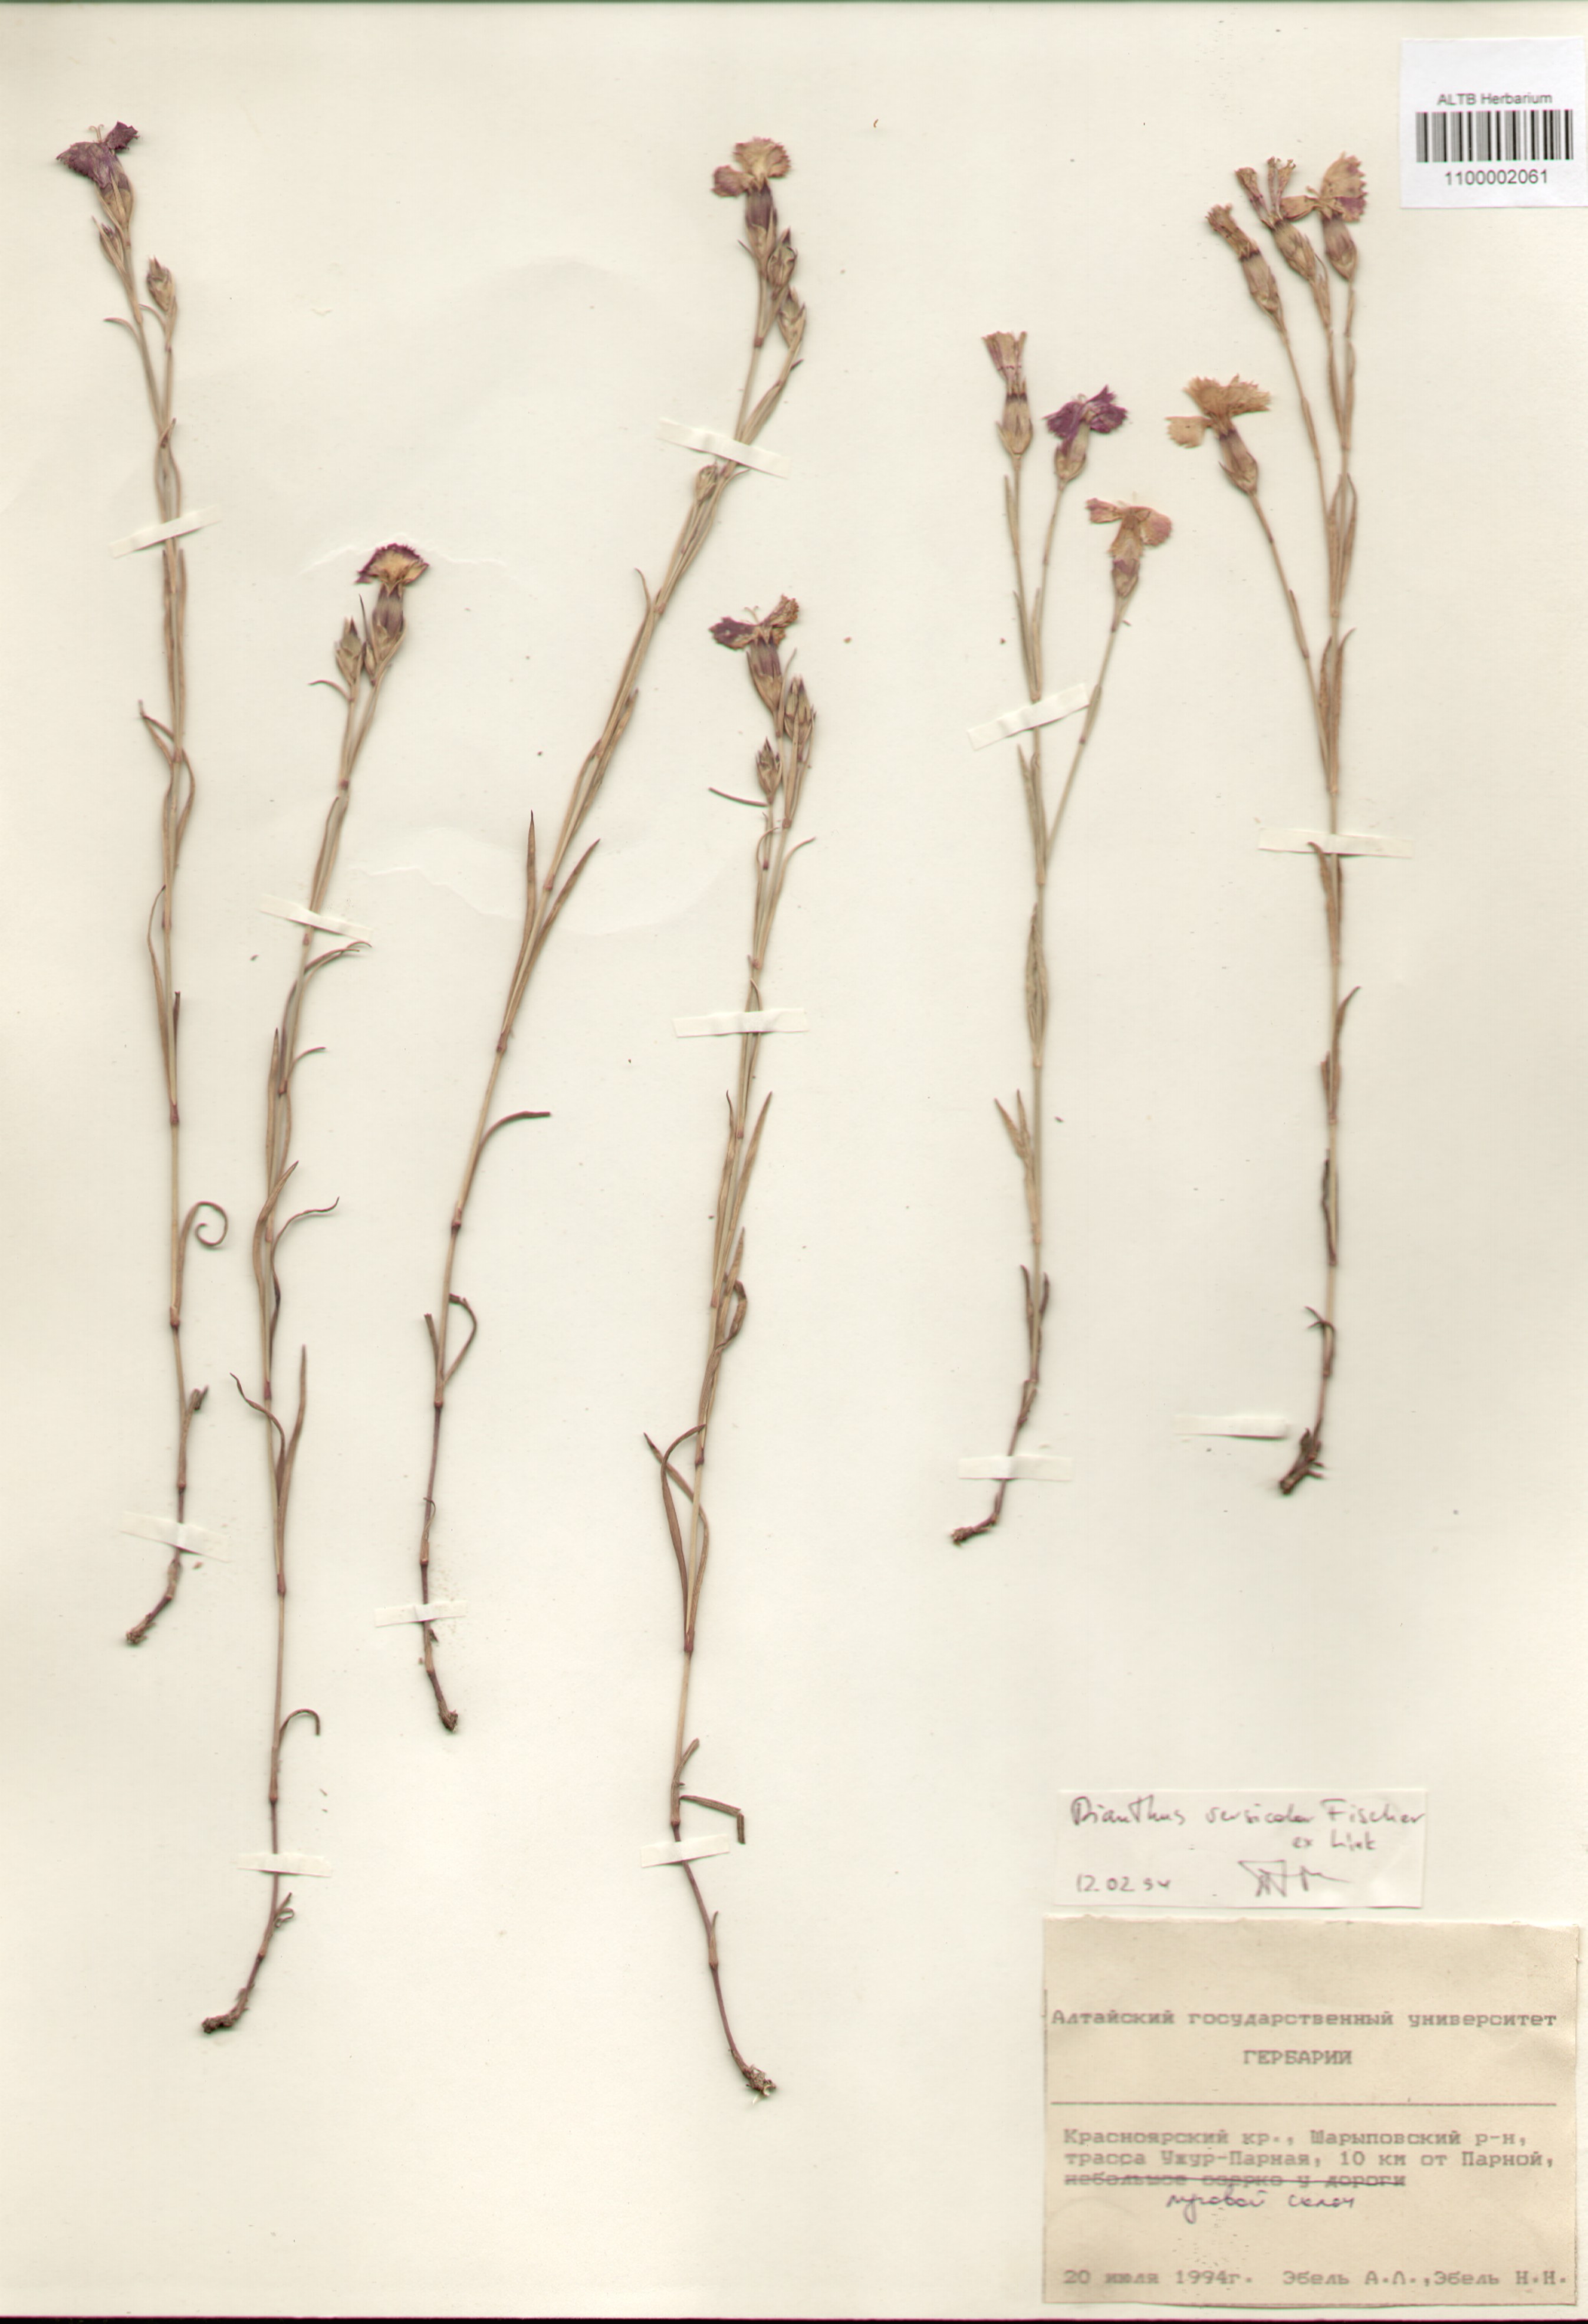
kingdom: Plantae
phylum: Tracheophyta
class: Magnoliopsida
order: Caryophyllales
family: Caryophyllaceae
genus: Dianthus
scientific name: Dianthus chinensis
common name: Rainbow pink
